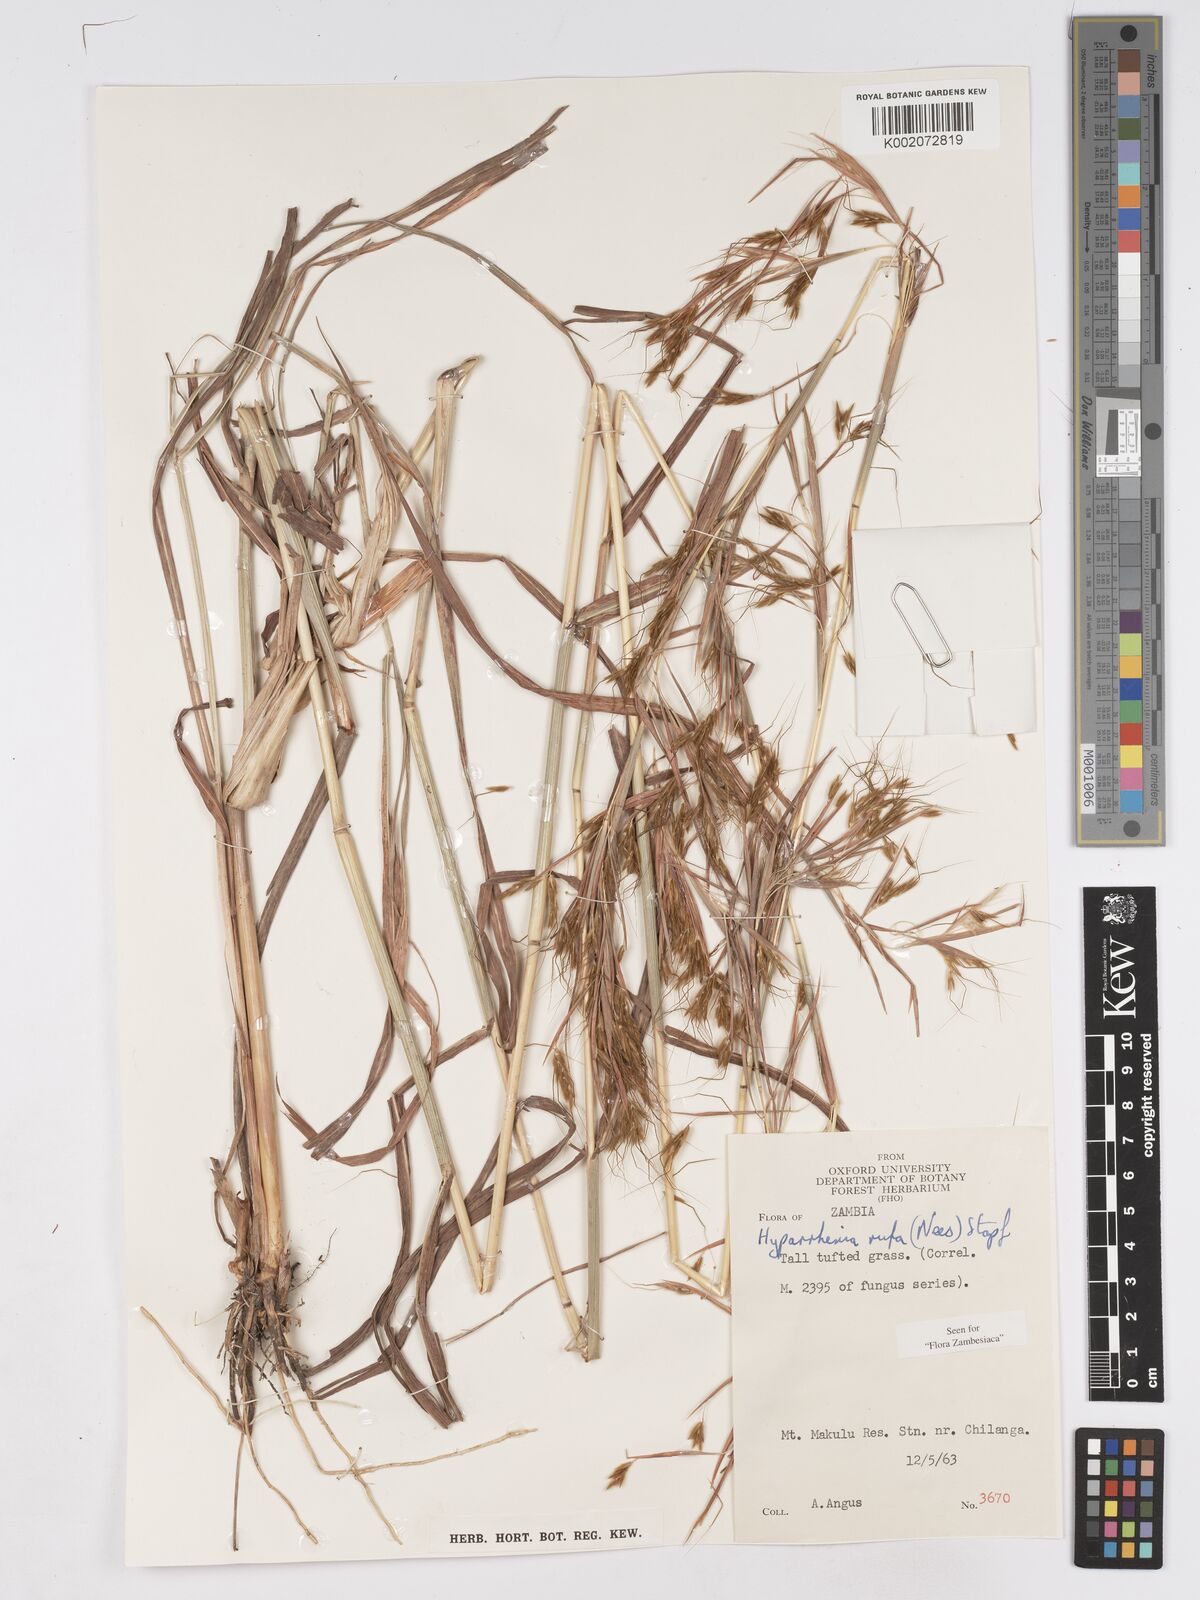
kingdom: Plantae
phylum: Tracheophyta
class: Liliopsida
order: Poales
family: Poaceae
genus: Hyparrhenia
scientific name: Hyparrhenia rufa
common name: Jaraguagrass
